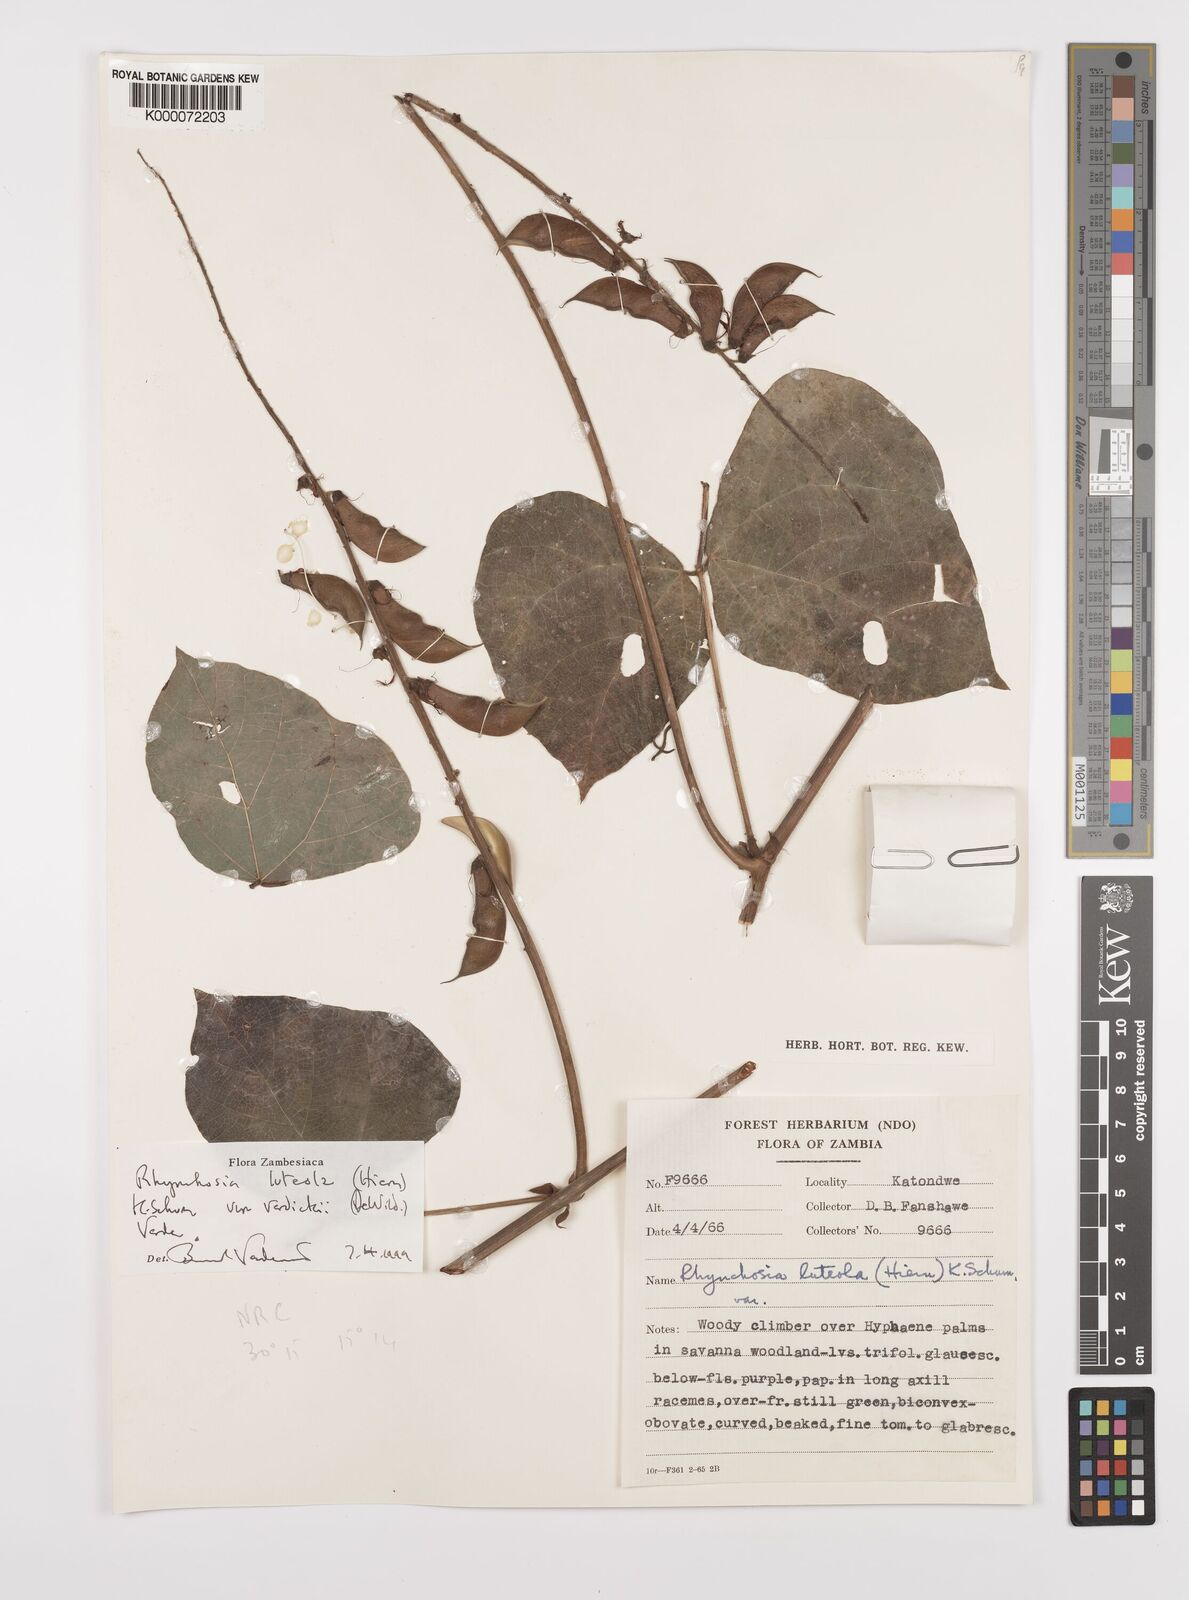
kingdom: Plantae
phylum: Tracheophyta
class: Magnoliopsida
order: Fabales
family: Fabaceae
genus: Rhynchosia
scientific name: Rhynchosia luteola
